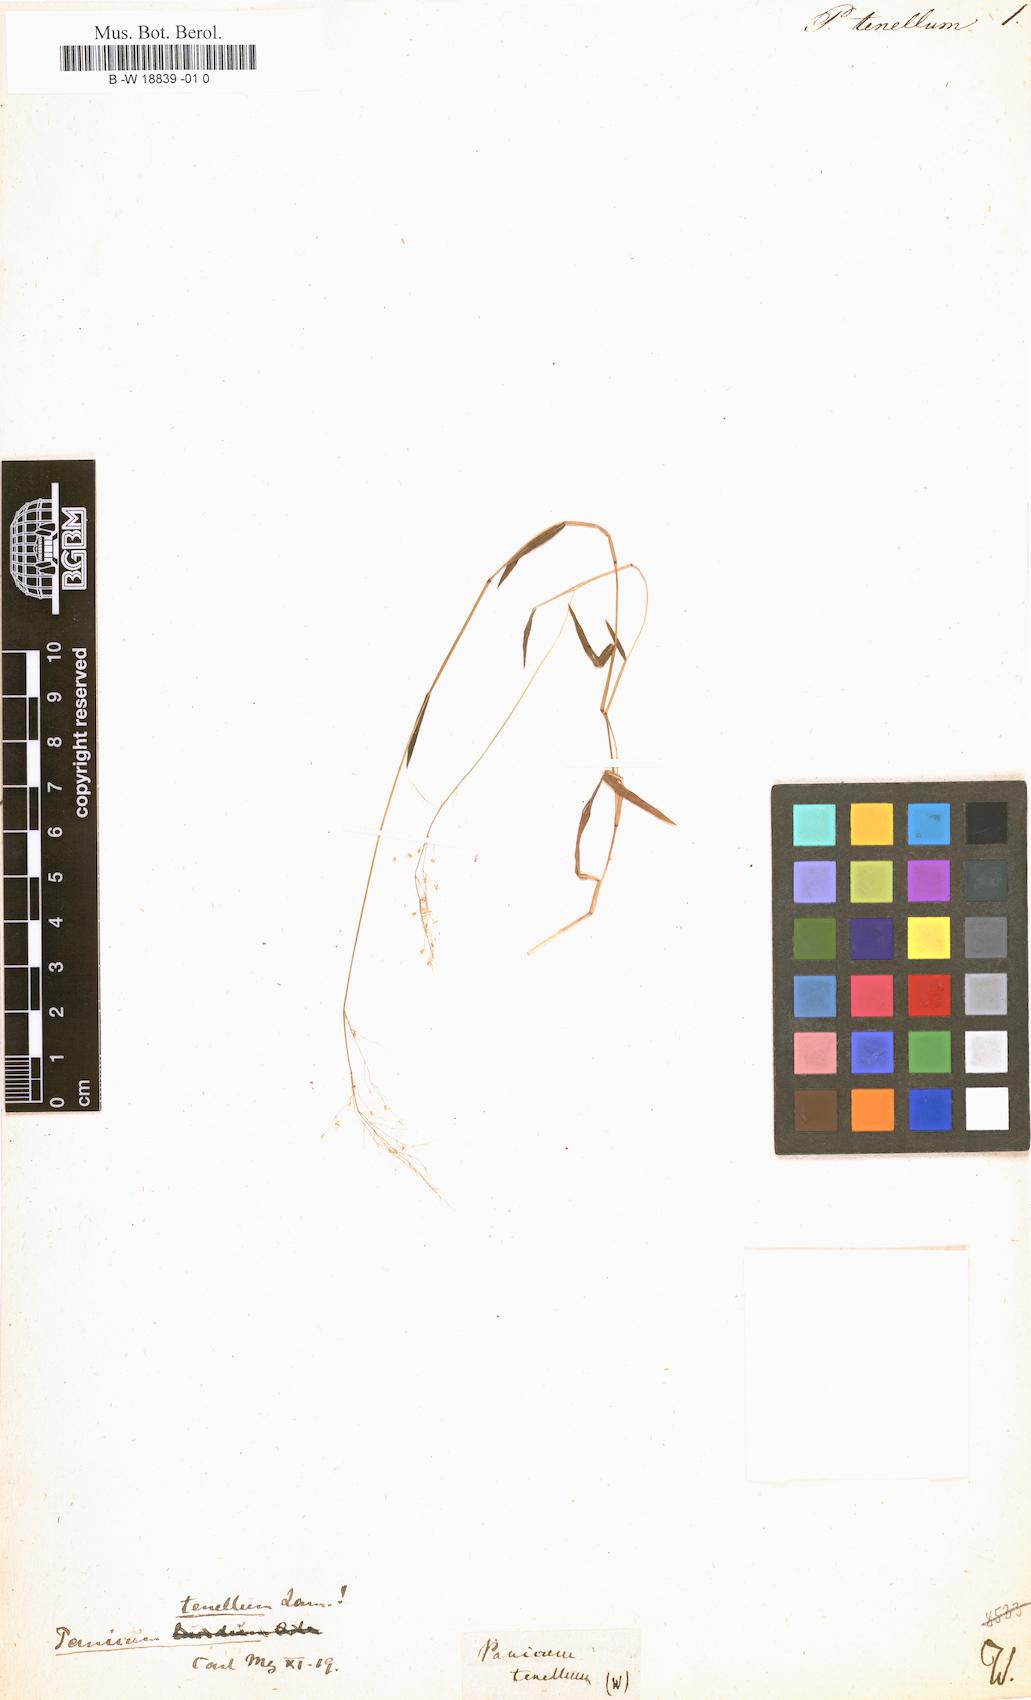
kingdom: Plantae
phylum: Tracheophyta
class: Liliopsida
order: Poales
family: Poaceae
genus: Trichanthecium
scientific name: Trichanthecium tenellum
